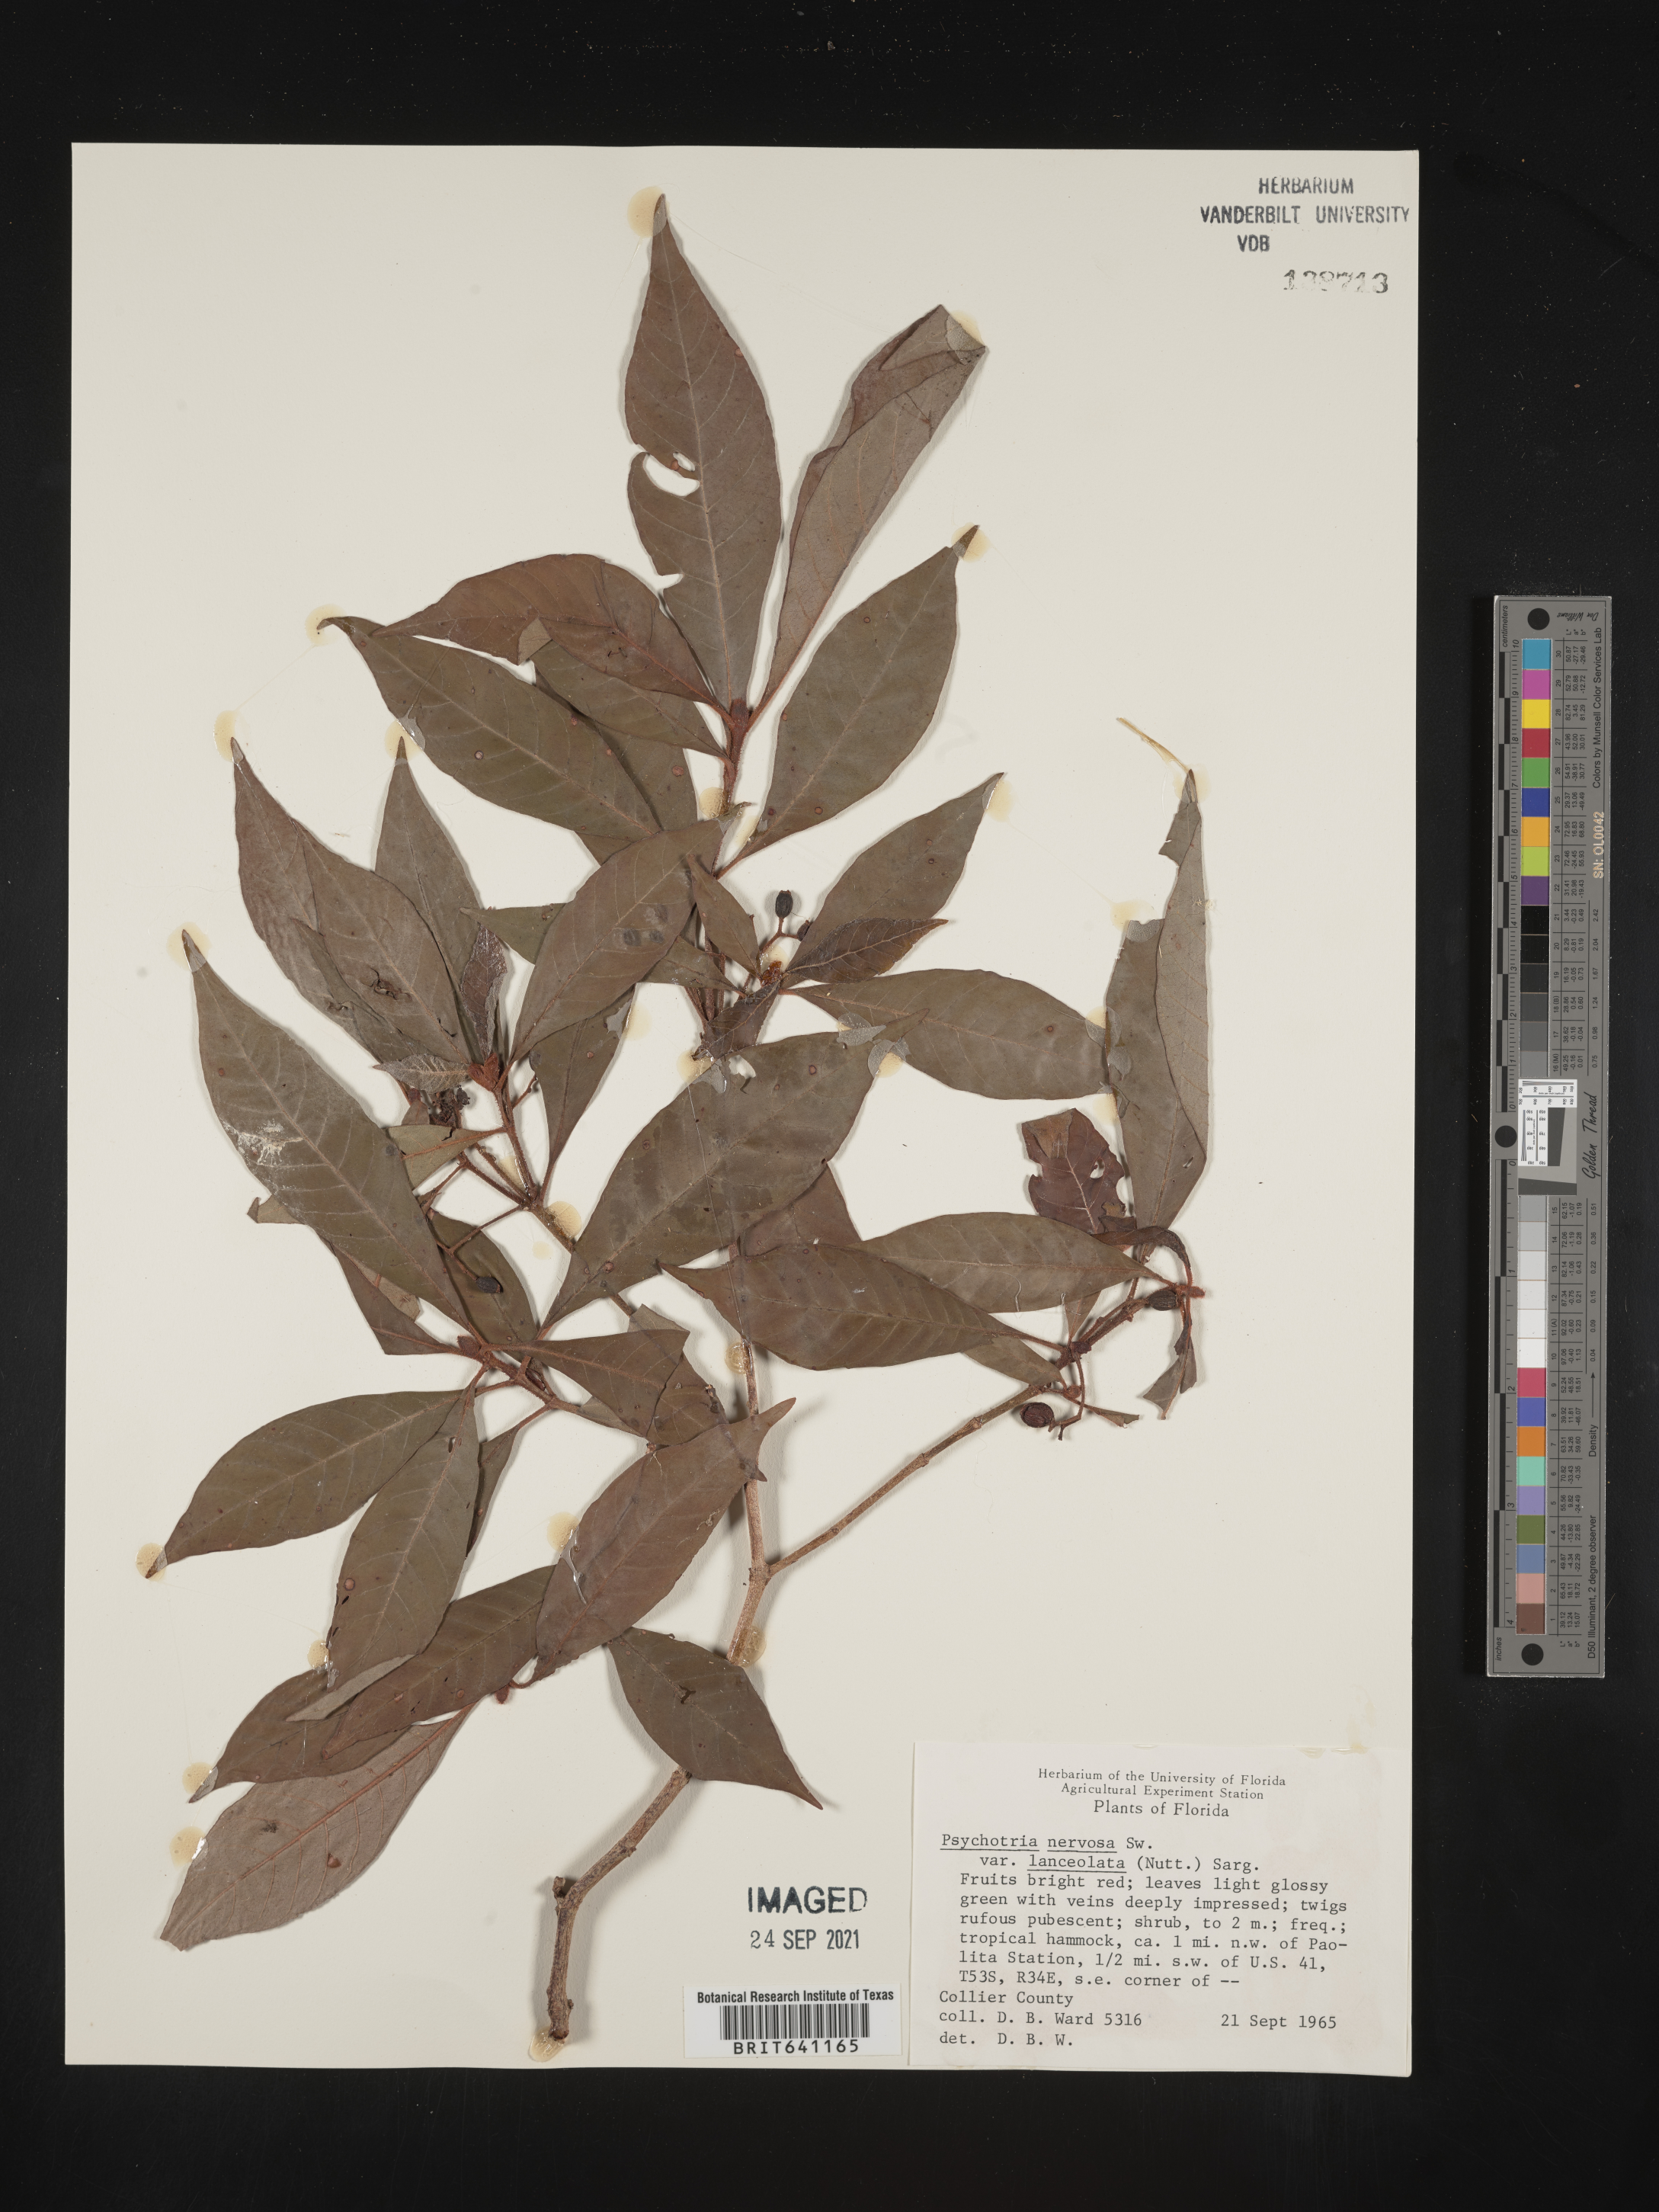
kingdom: Plantae
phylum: Tracheophyta
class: Magnoliopsida
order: Gentianales
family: Rubiaceae
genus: Psychotria
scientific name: Psychotria nervosa
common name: Bastard cankerberry
